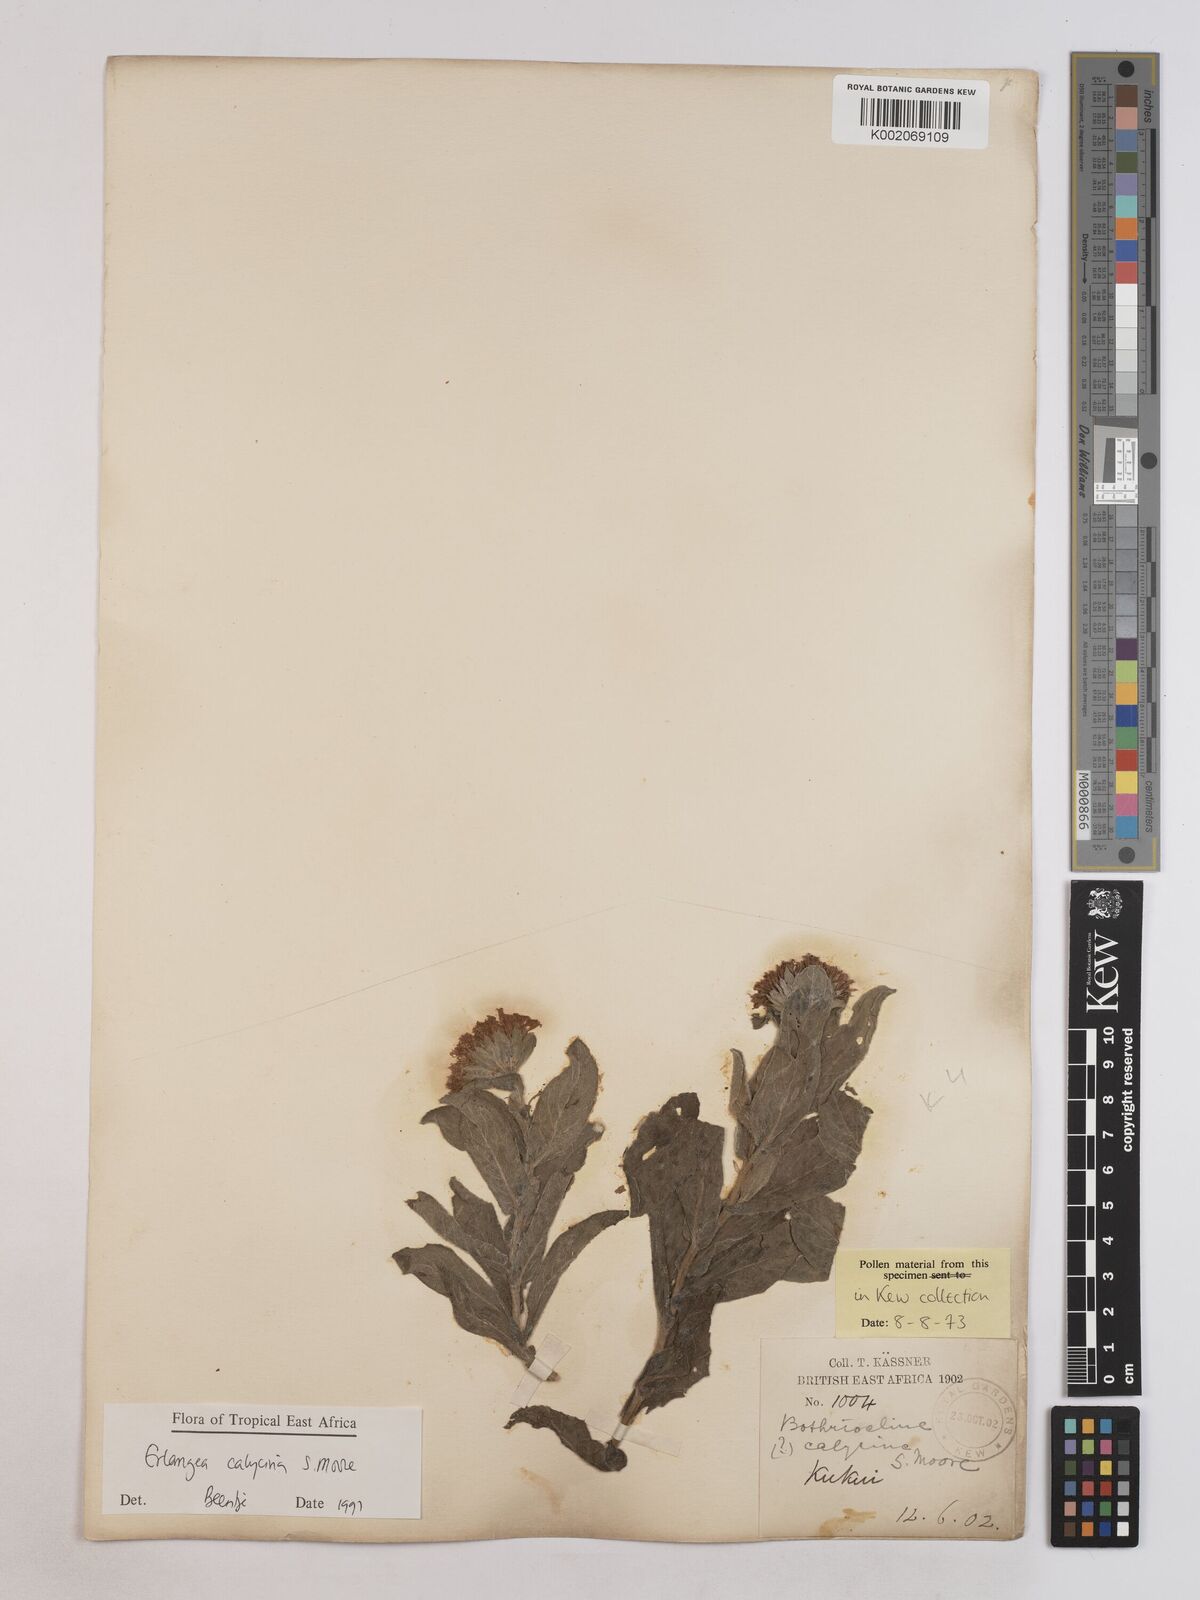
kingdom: Plantae
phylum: Tracheophyta
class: Magnoliopsida
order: Asterales
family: Asteraceae
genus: Erlangea
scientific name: Erlangea calycina
